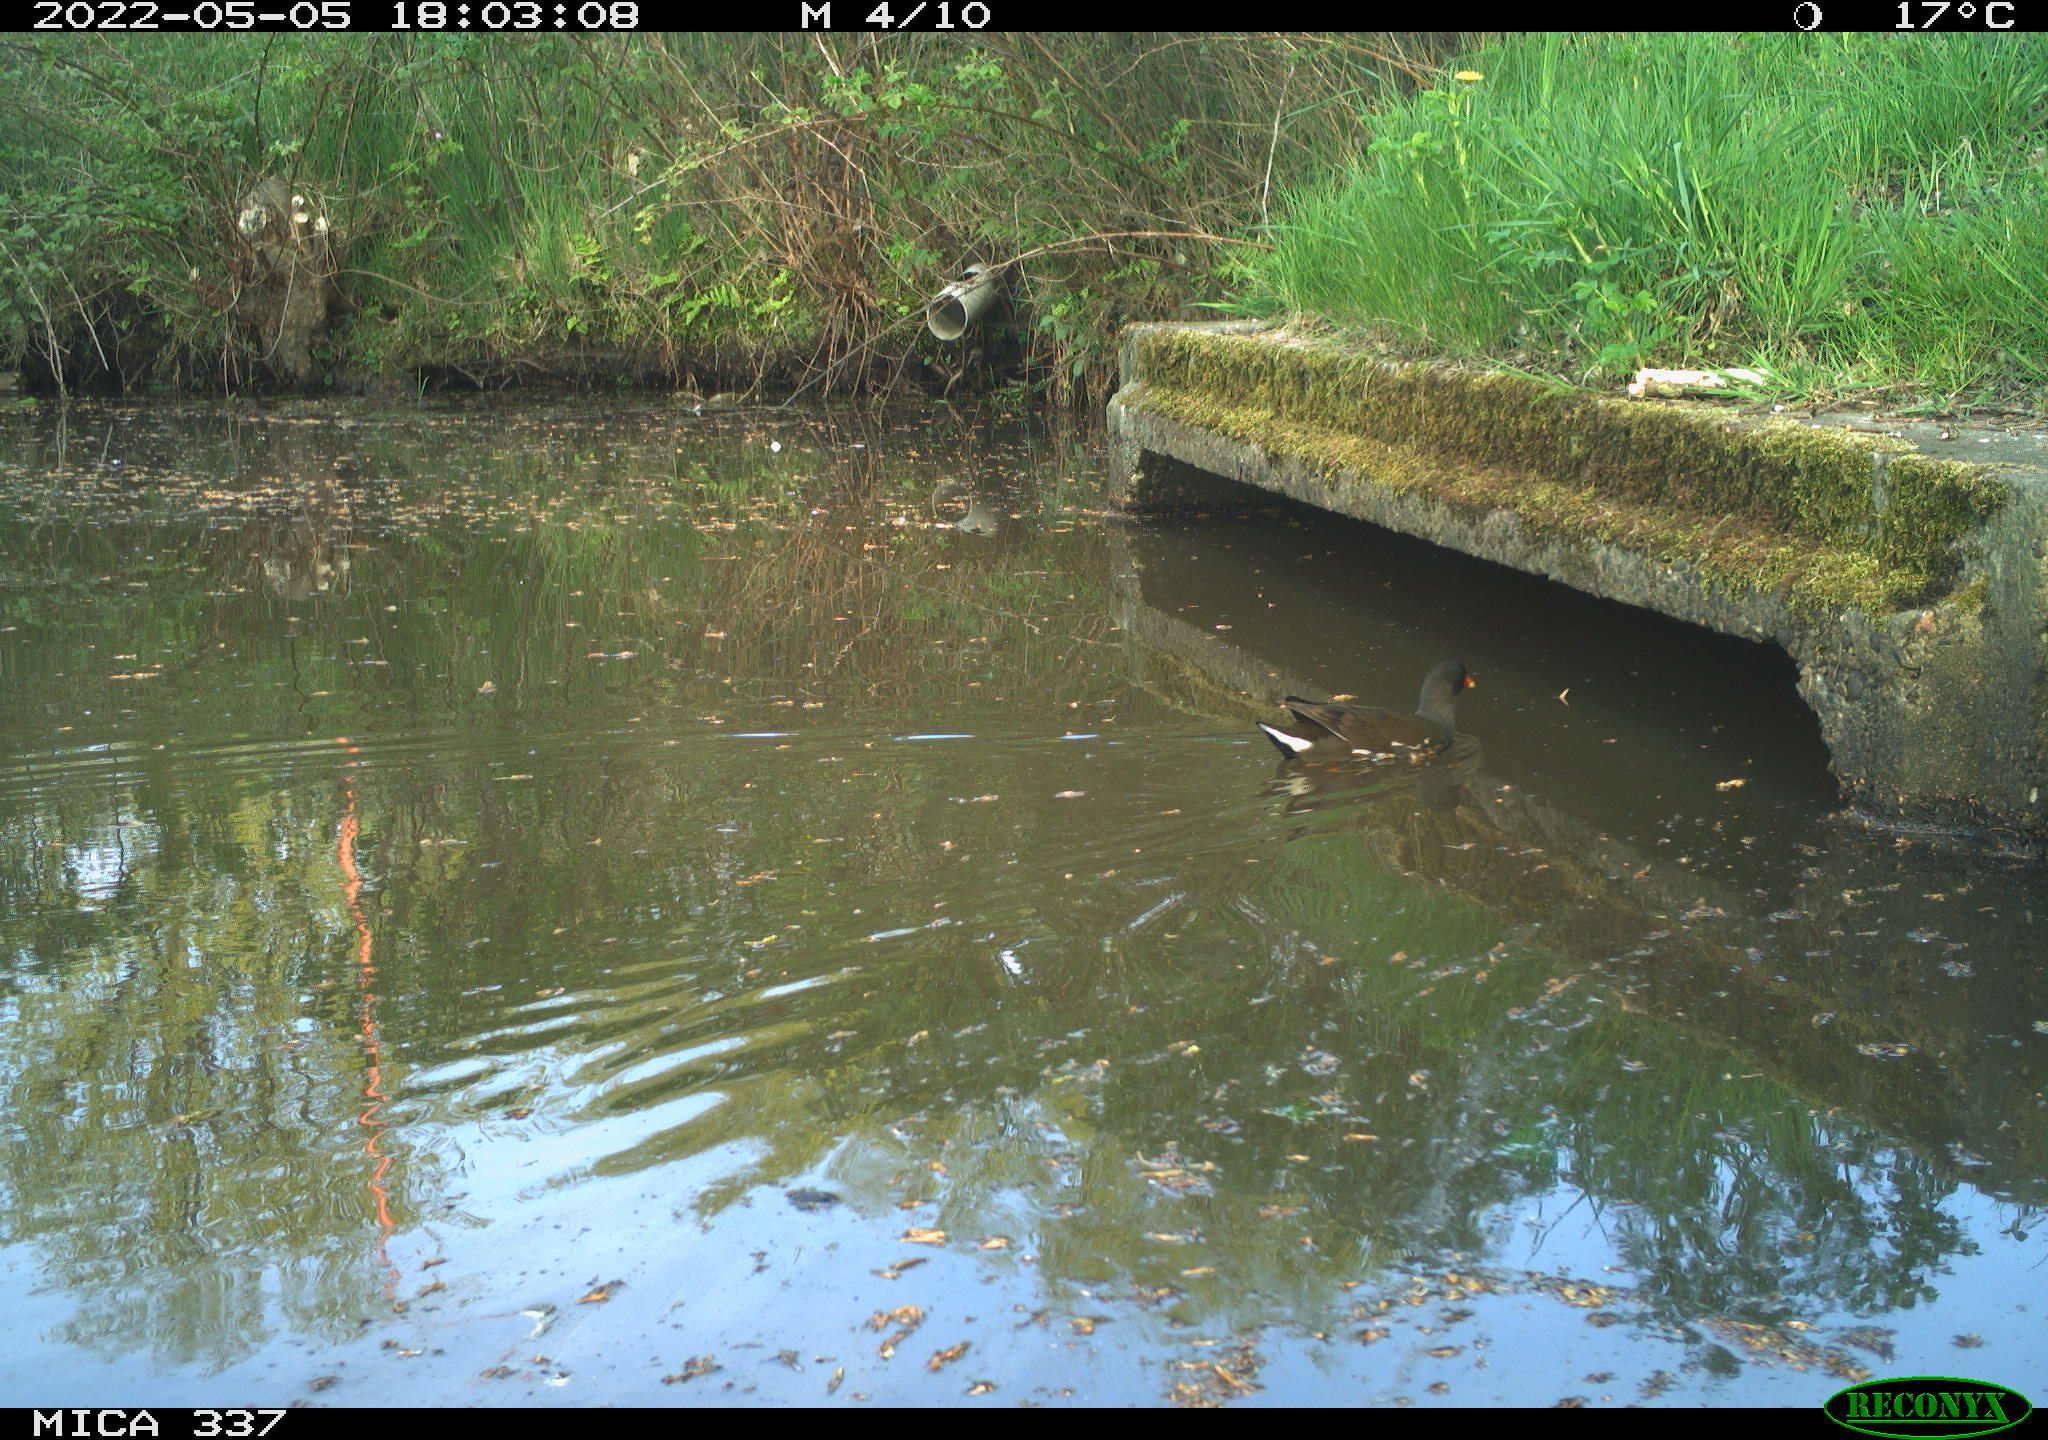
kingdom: Animalia
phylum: Chordata
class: Aves
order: Gruiformes
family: Rallidae
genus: Gallinula
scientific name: Gallinula chloropus
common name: Common moorhen
